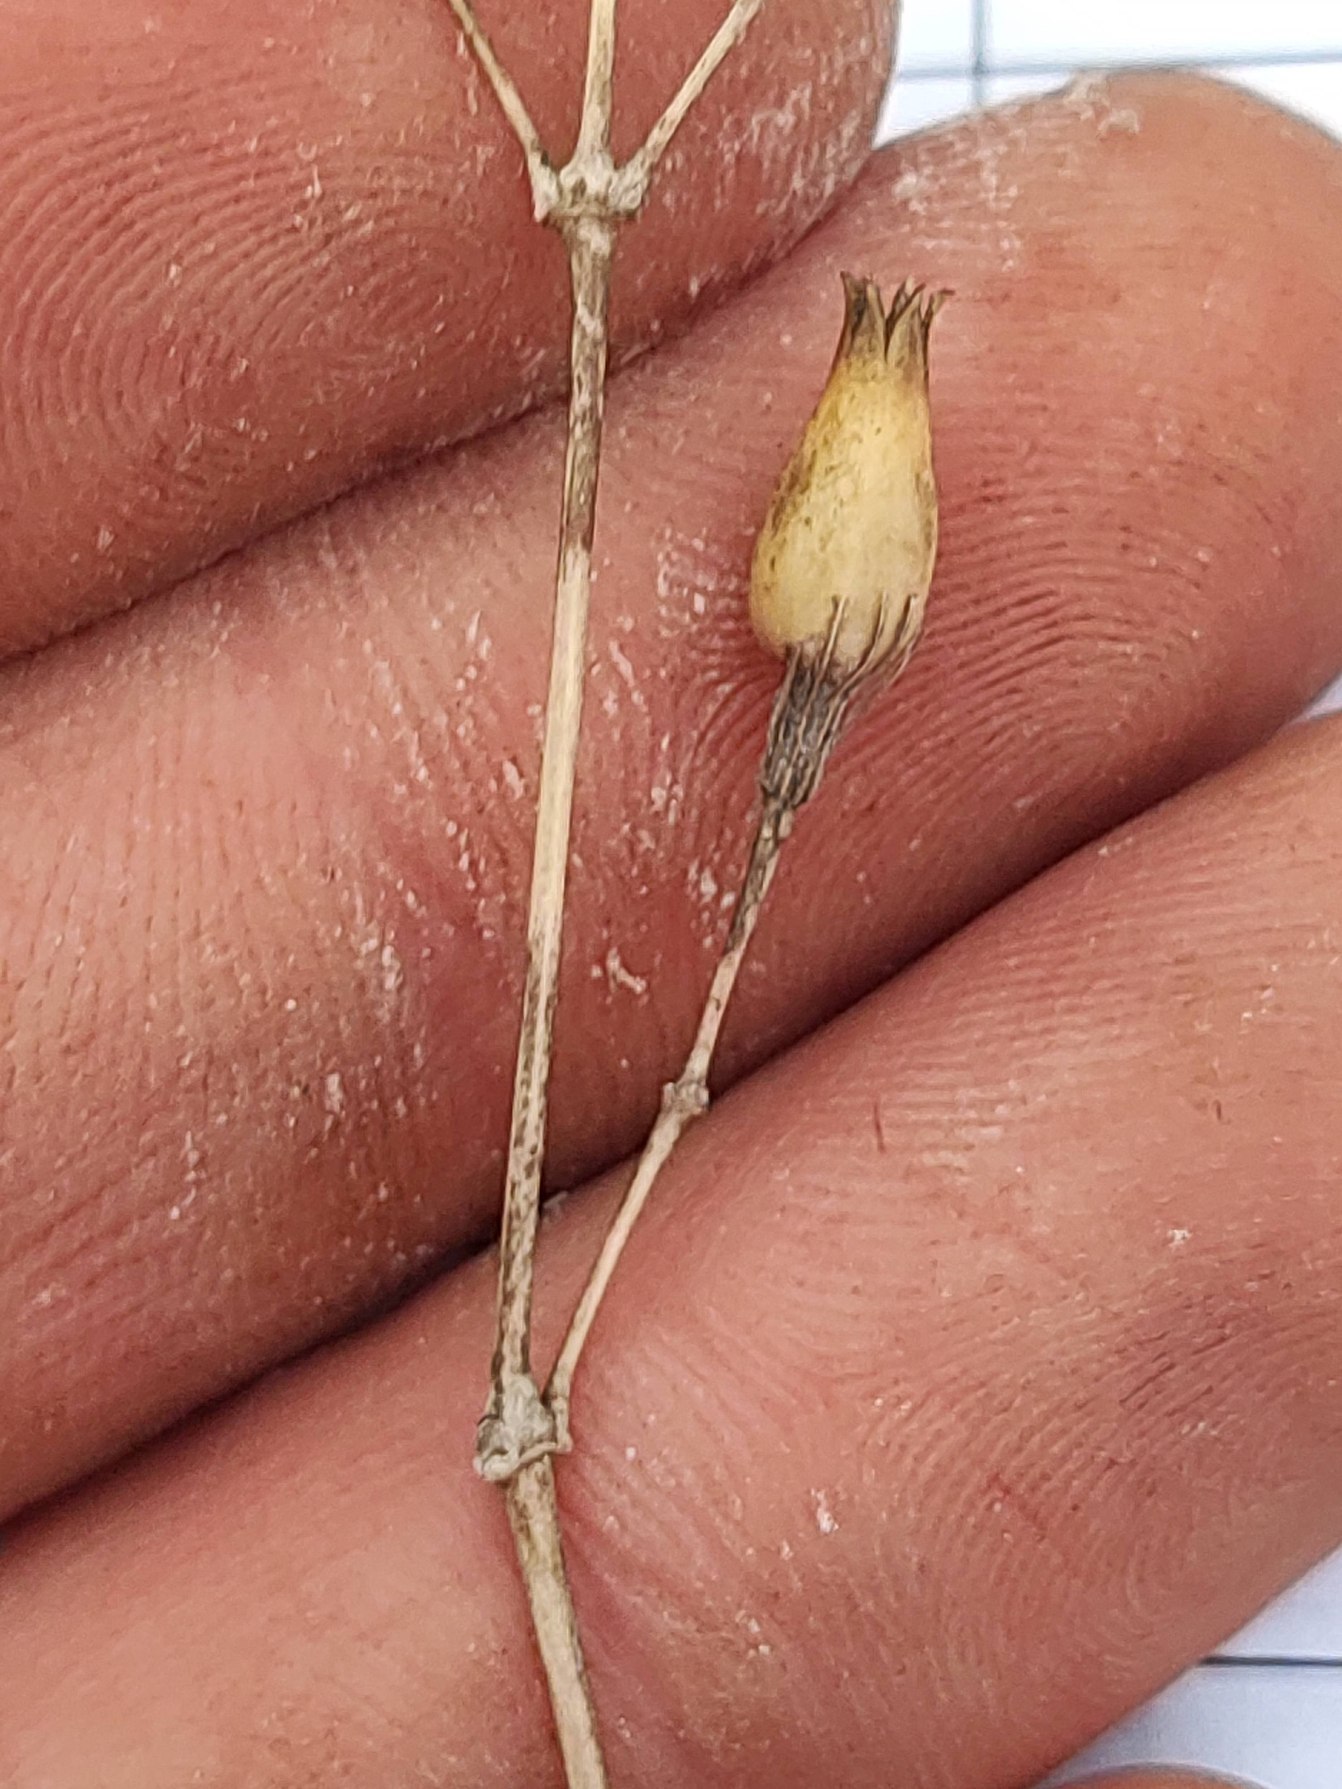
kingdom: Plantae
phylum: Tracheophyta
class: Magnoliopsida
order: Caryophyllales
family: Caryophyllaceae
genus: Silene
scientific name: Silene nutans
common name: Nikkende limurt
